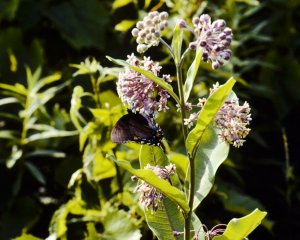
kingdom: Animalia
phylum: Arthropoda
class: Insecta
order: Lepidoptera
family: Papilionidae
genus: Pterourus
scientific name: Pterourus glaucus
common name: Eastern Tiger Swallowtail
